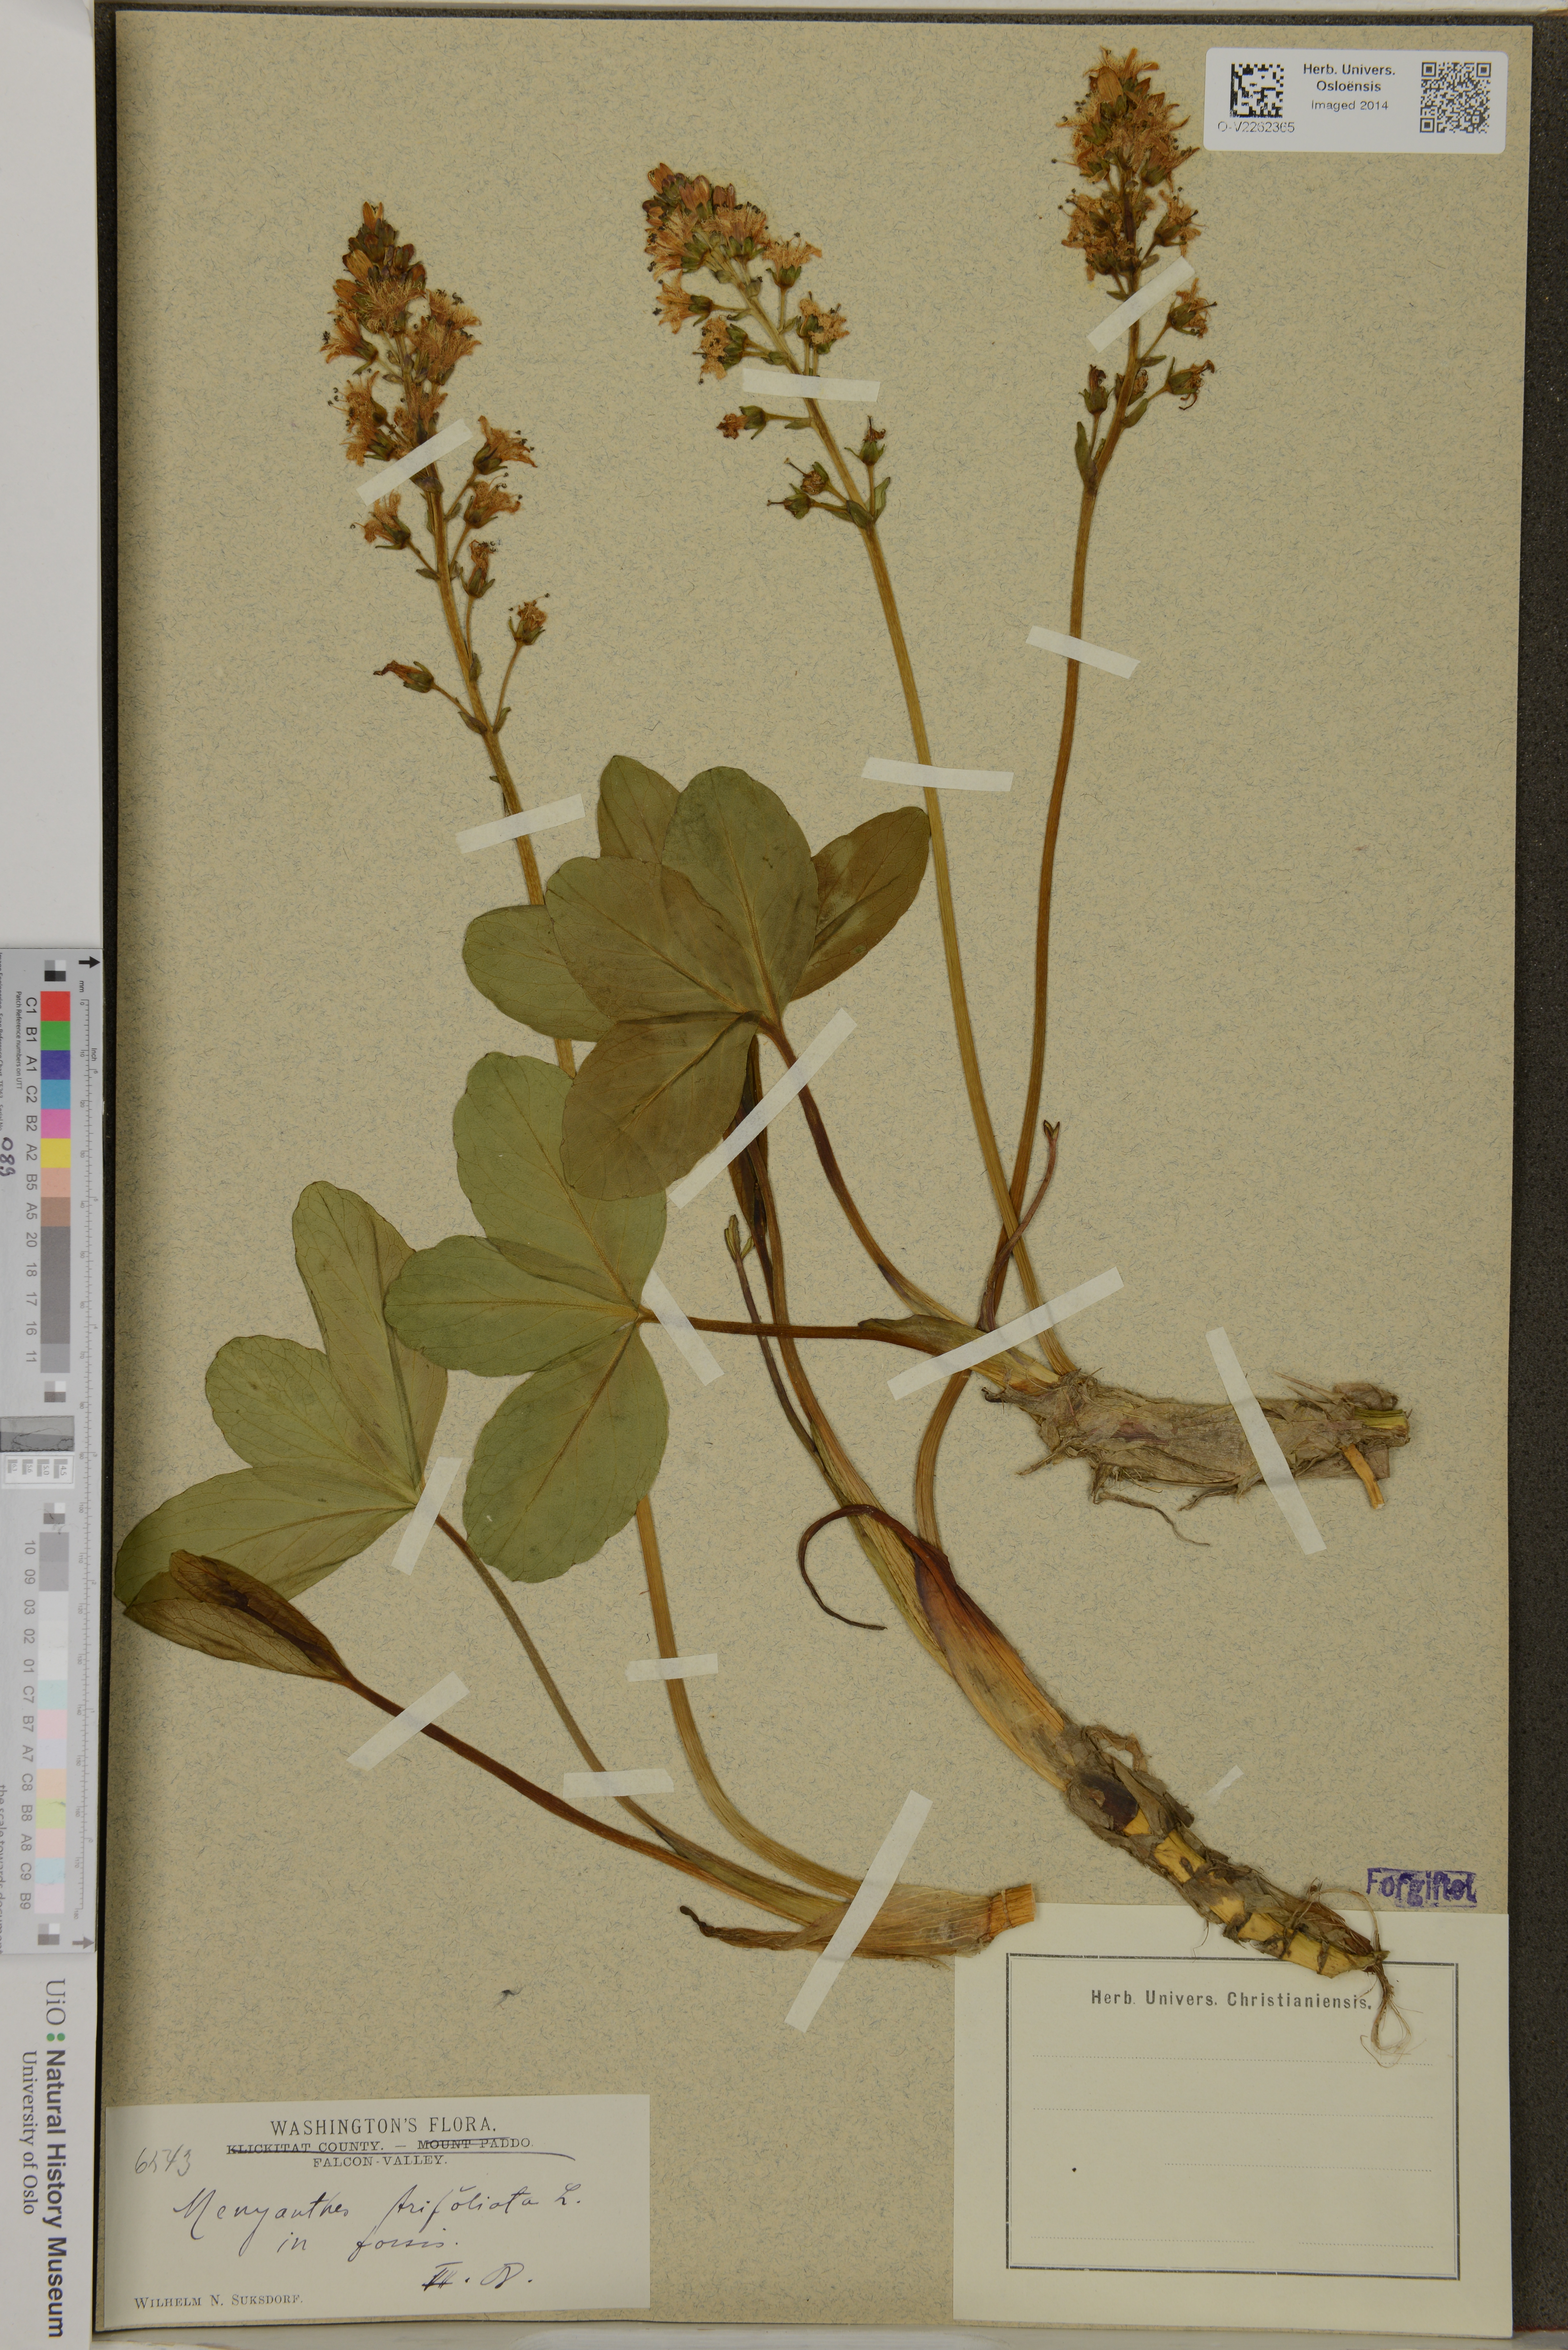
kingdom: Plantae
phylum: Tracheophyta
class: Magnoliopsida
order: Asterales
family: Menyanthaceae
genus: Menyanthes
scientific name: Menyanthes trifoliata
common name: Bogbean
